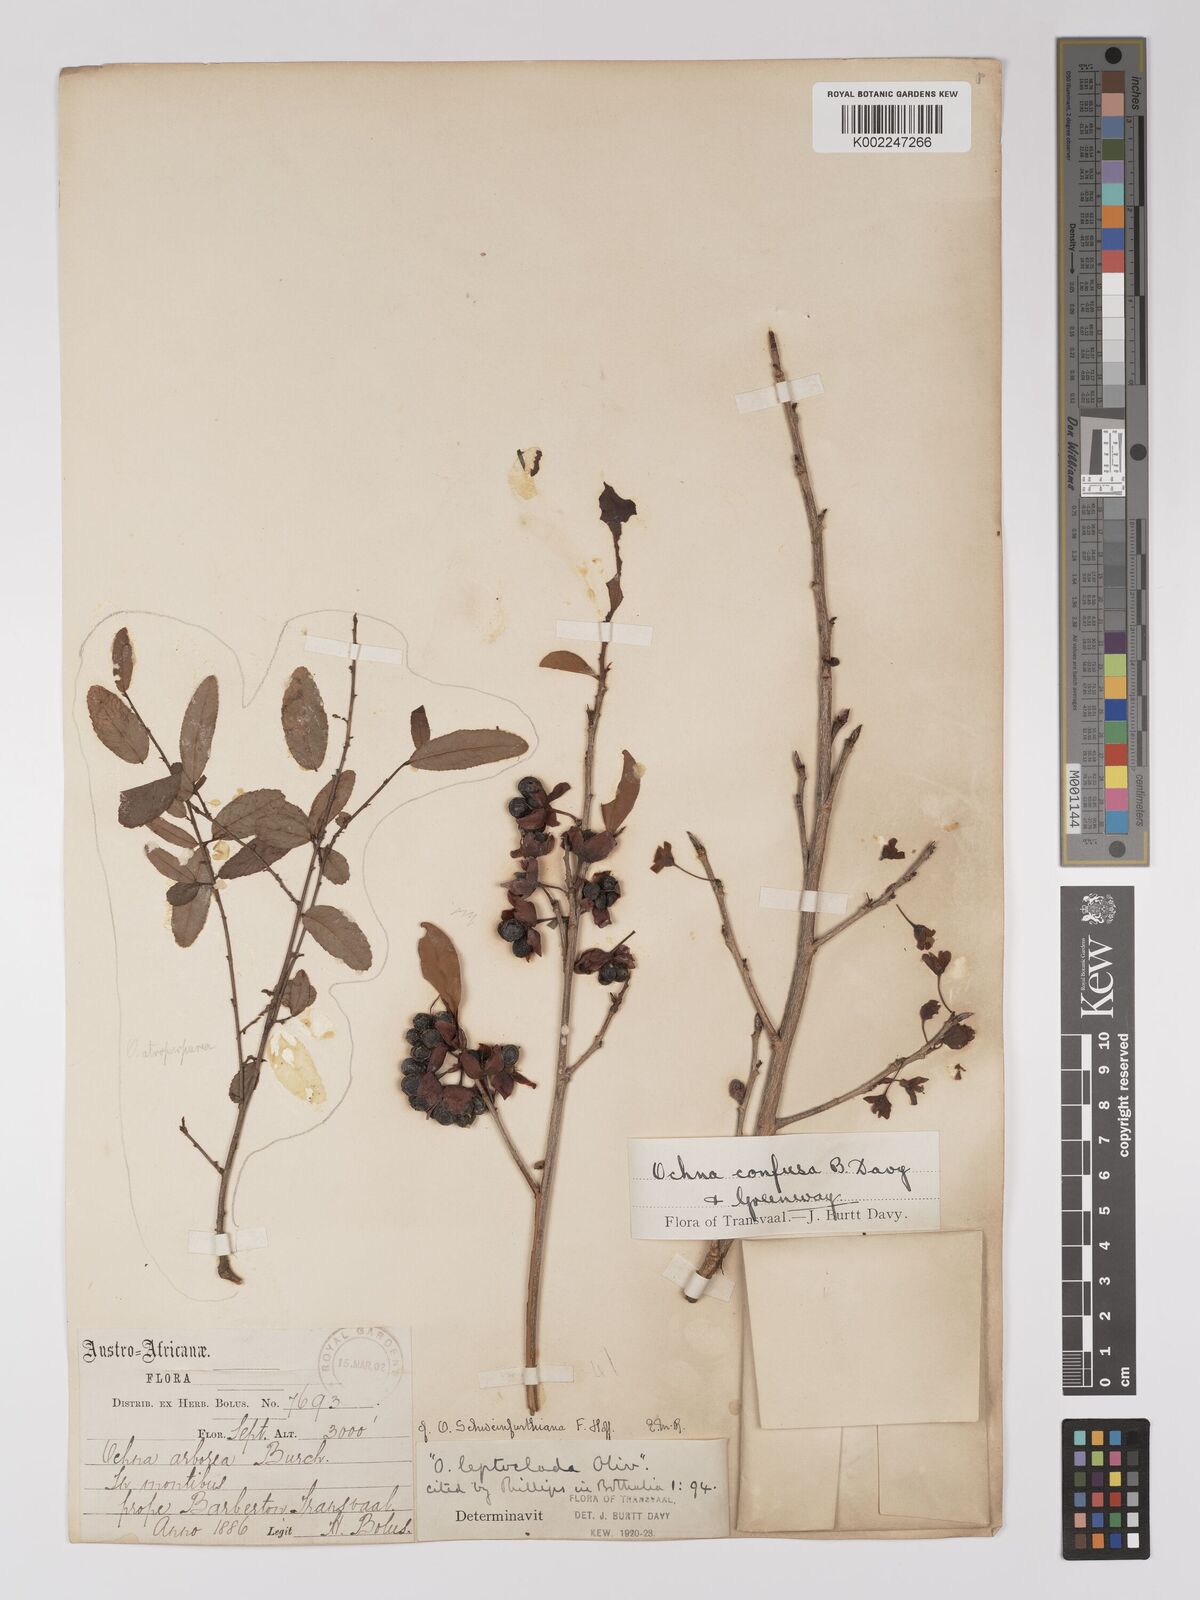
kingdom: Plantae
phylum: Tracheophyta
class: Magnoliopsida
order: Malpighiales
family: Ochnaceae
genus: Ochna
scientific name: Ochna confusa
